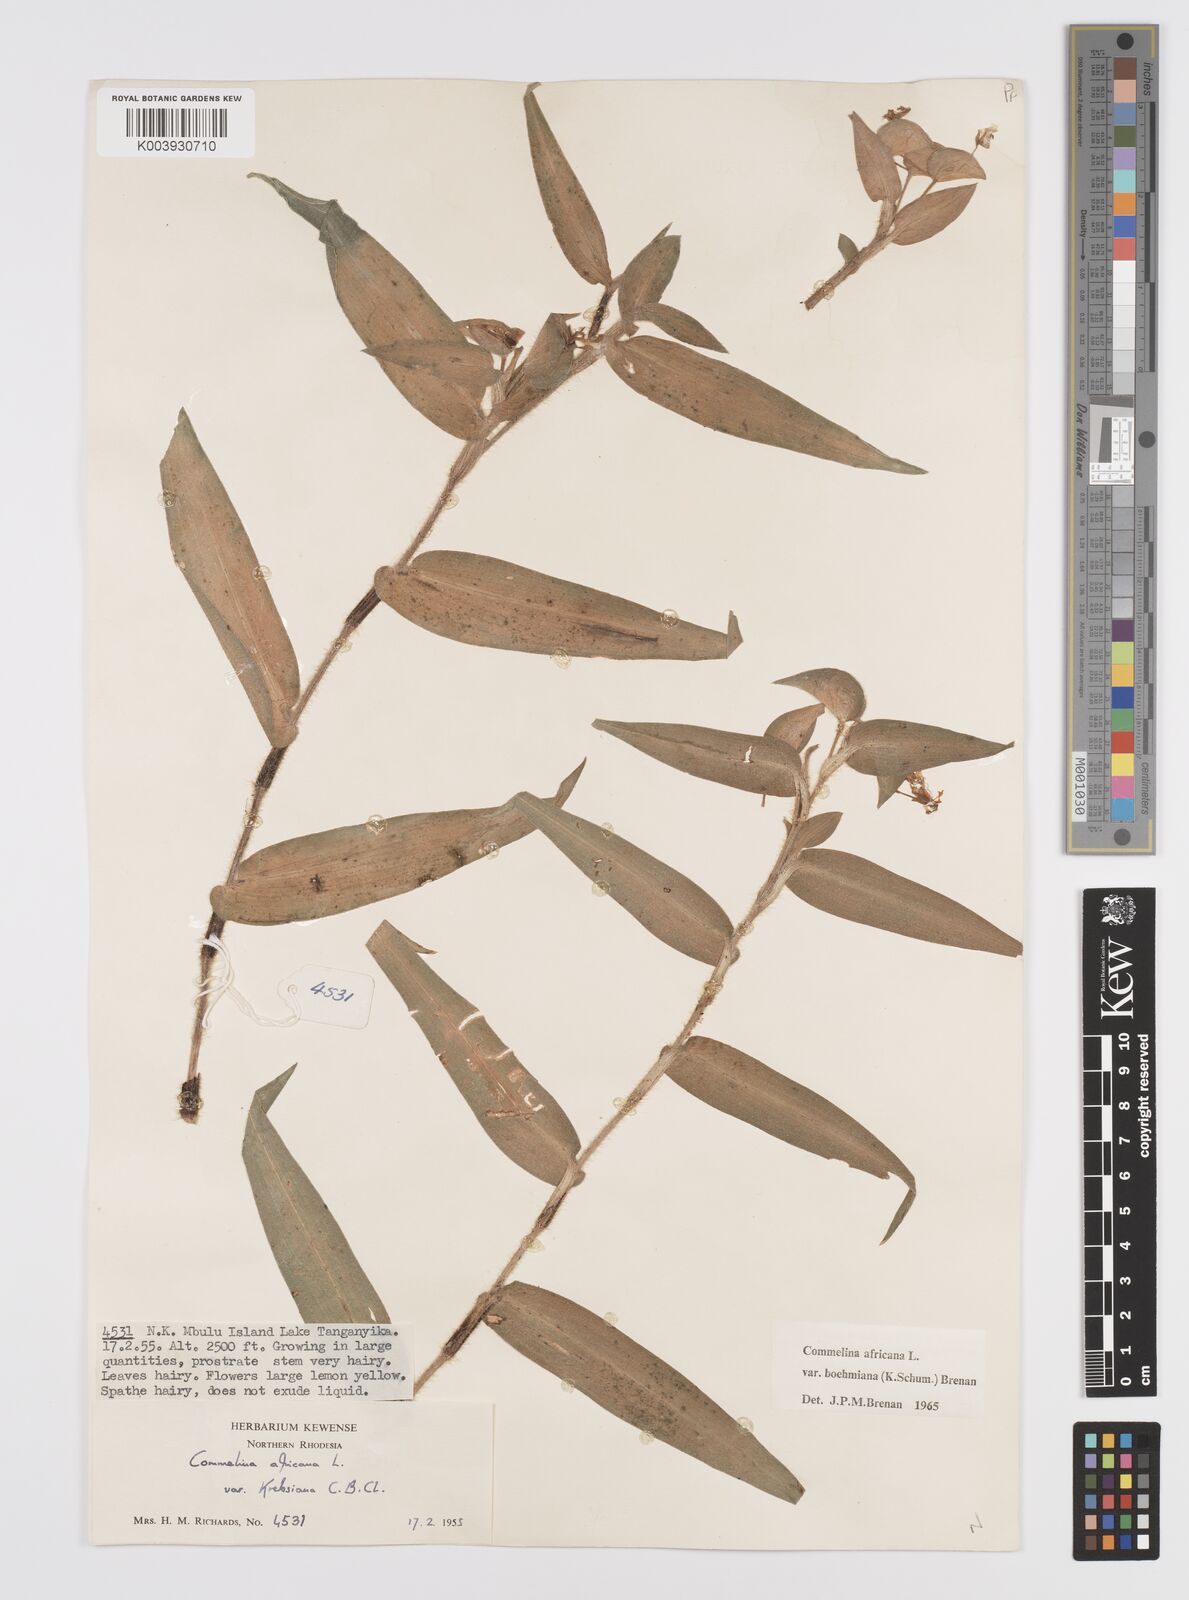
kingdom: Plantae
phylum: Tracheophyta
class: Liliopsida
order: Commelinales
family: Commelinaceae
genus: Commelina
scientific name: Commelina africana
